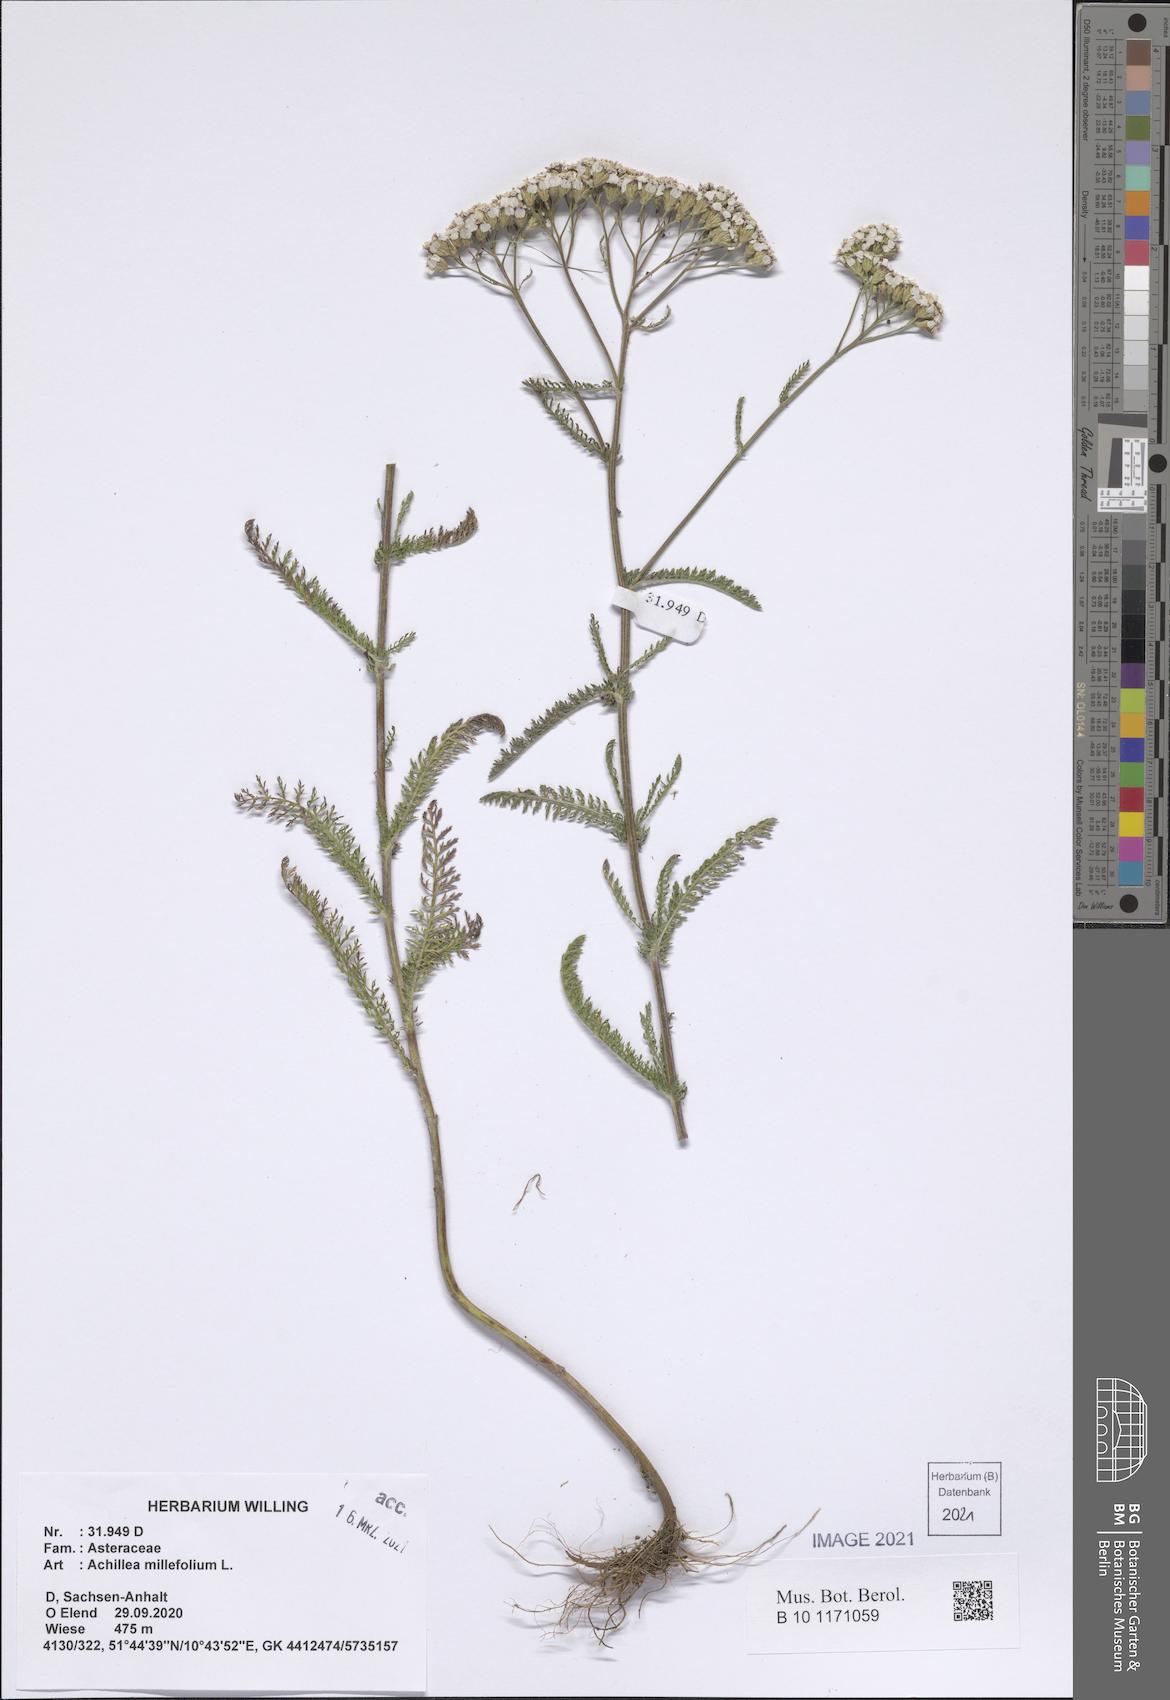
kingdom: Plantae
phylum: Tracheophyta
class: Magnoliopsida
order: Asterales
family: Asteraceae
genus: Achillea
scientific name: Achillea millefolium
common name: Yarrow
